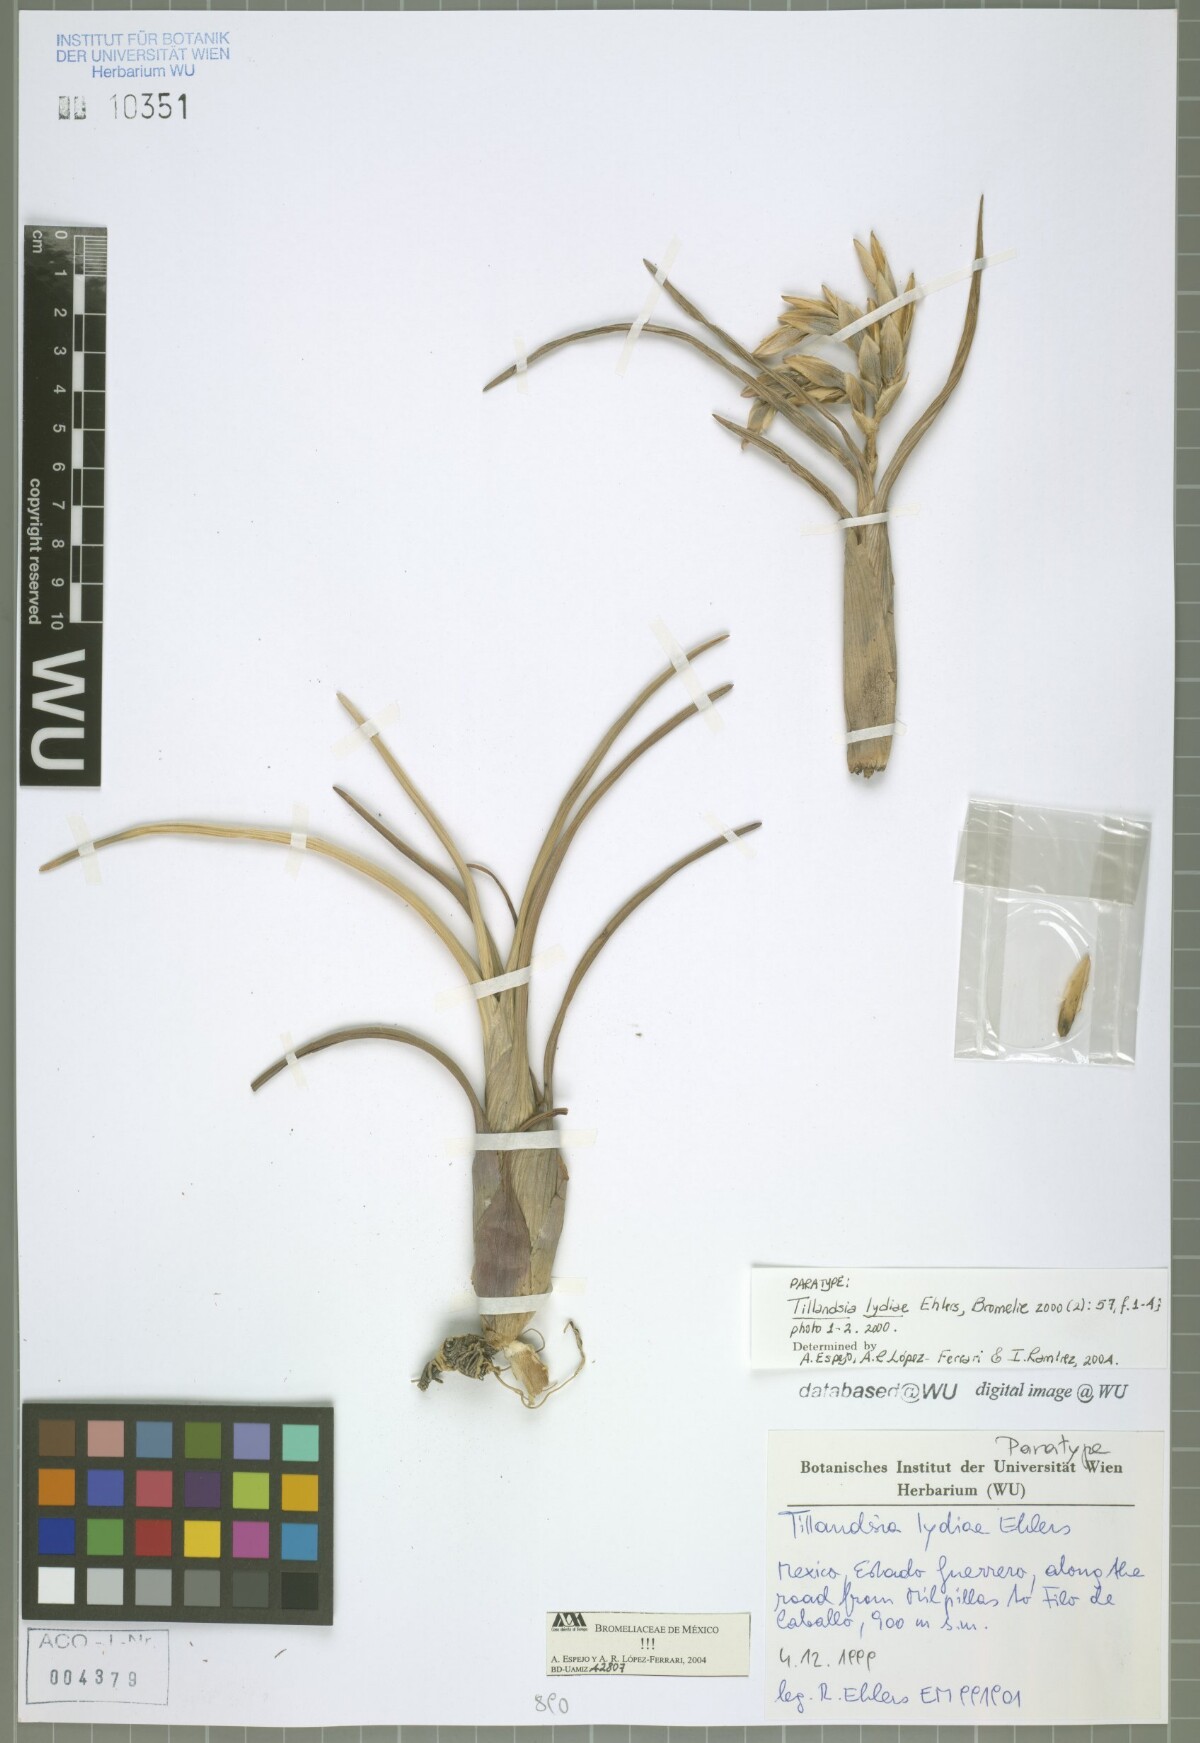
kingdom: Plantae
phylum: Tracheophyta
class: Liliopsida
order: Poales
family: Bromeliaceae
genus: Tillandsia
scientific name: Tillandsia lydiae
